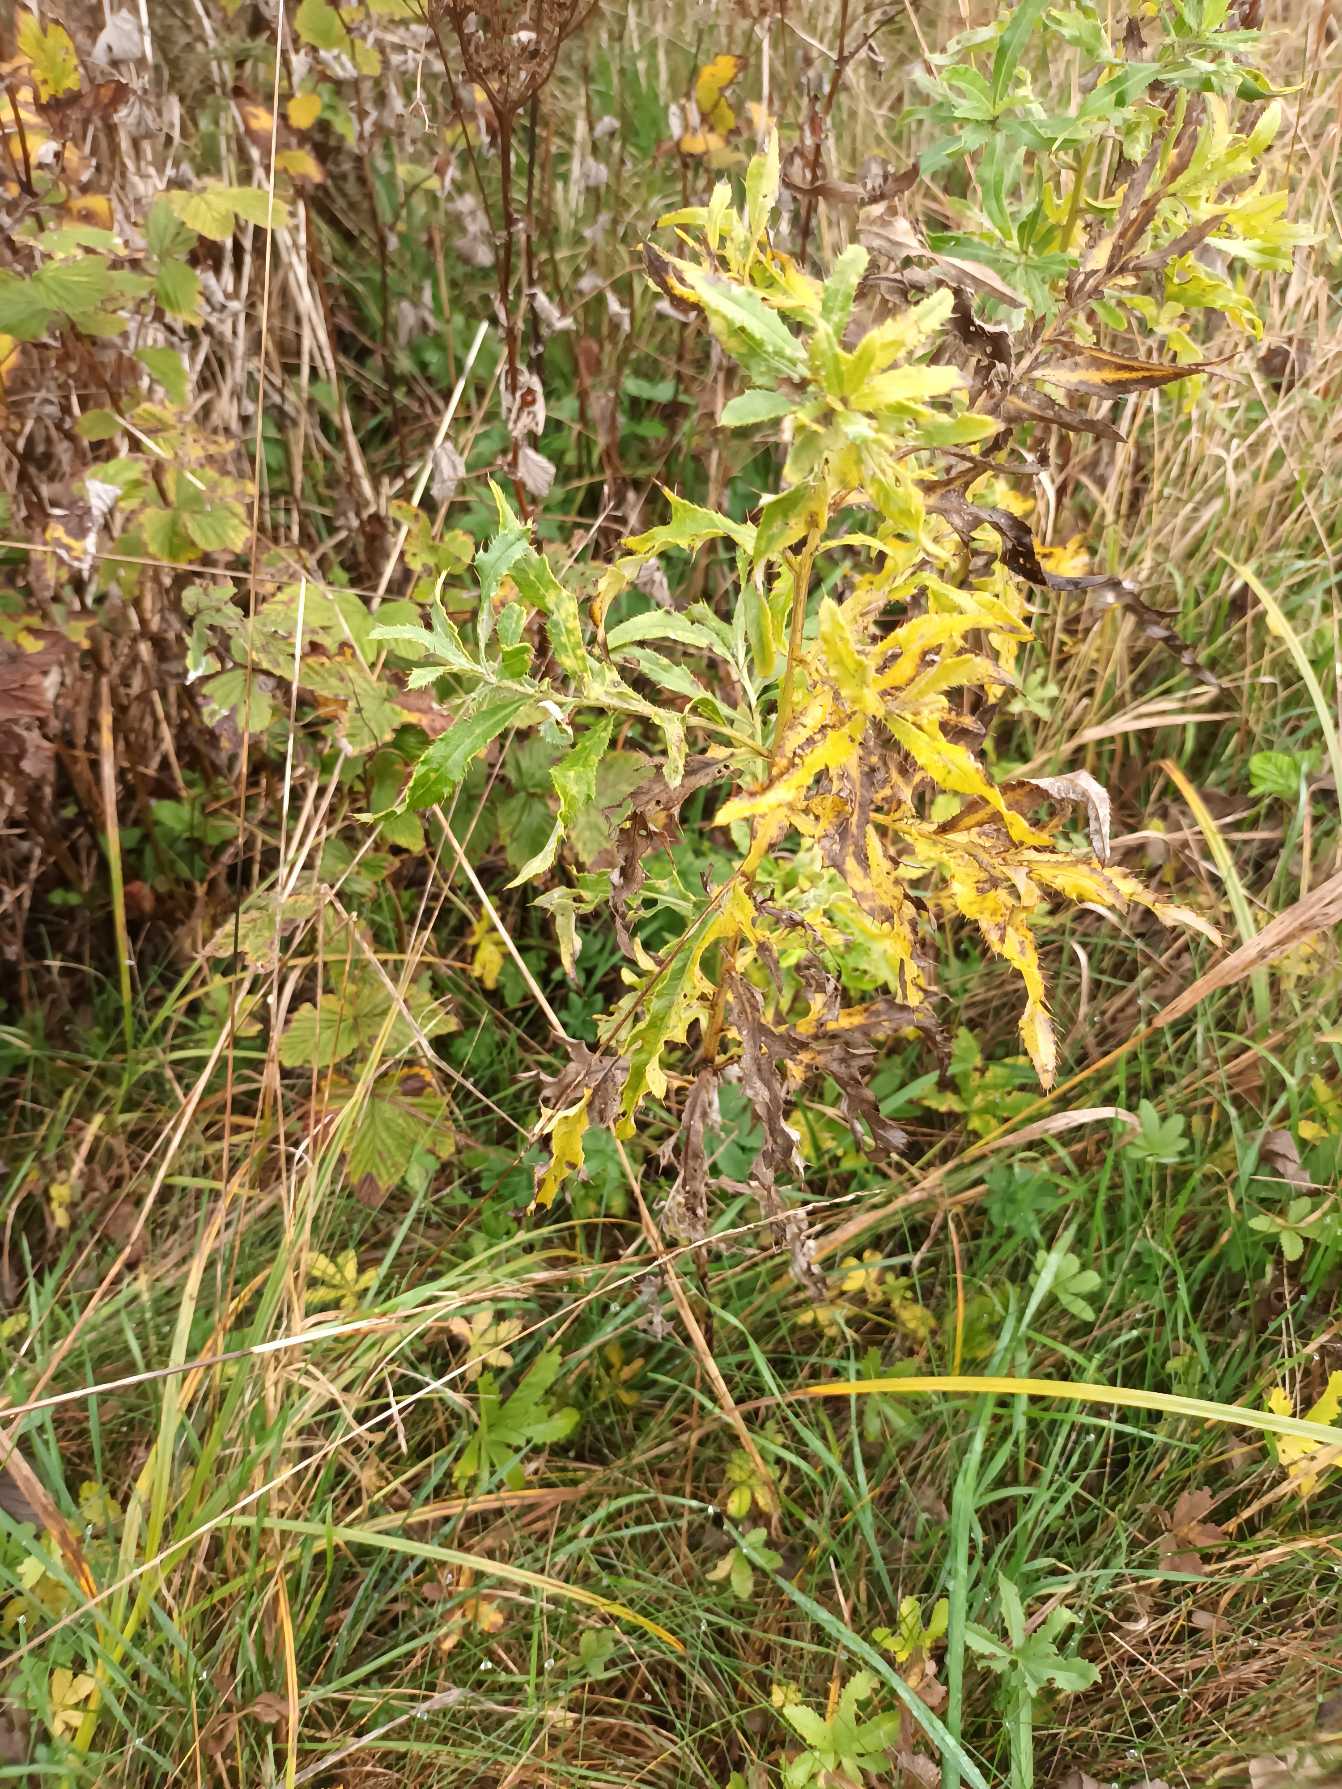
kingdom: Plantae
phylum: Tracheophyta
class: Magnoliopsida
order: Asterales
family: Asteraceae
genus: Cirsium
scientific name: Cirsium arvense
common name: Ager-tidsel
